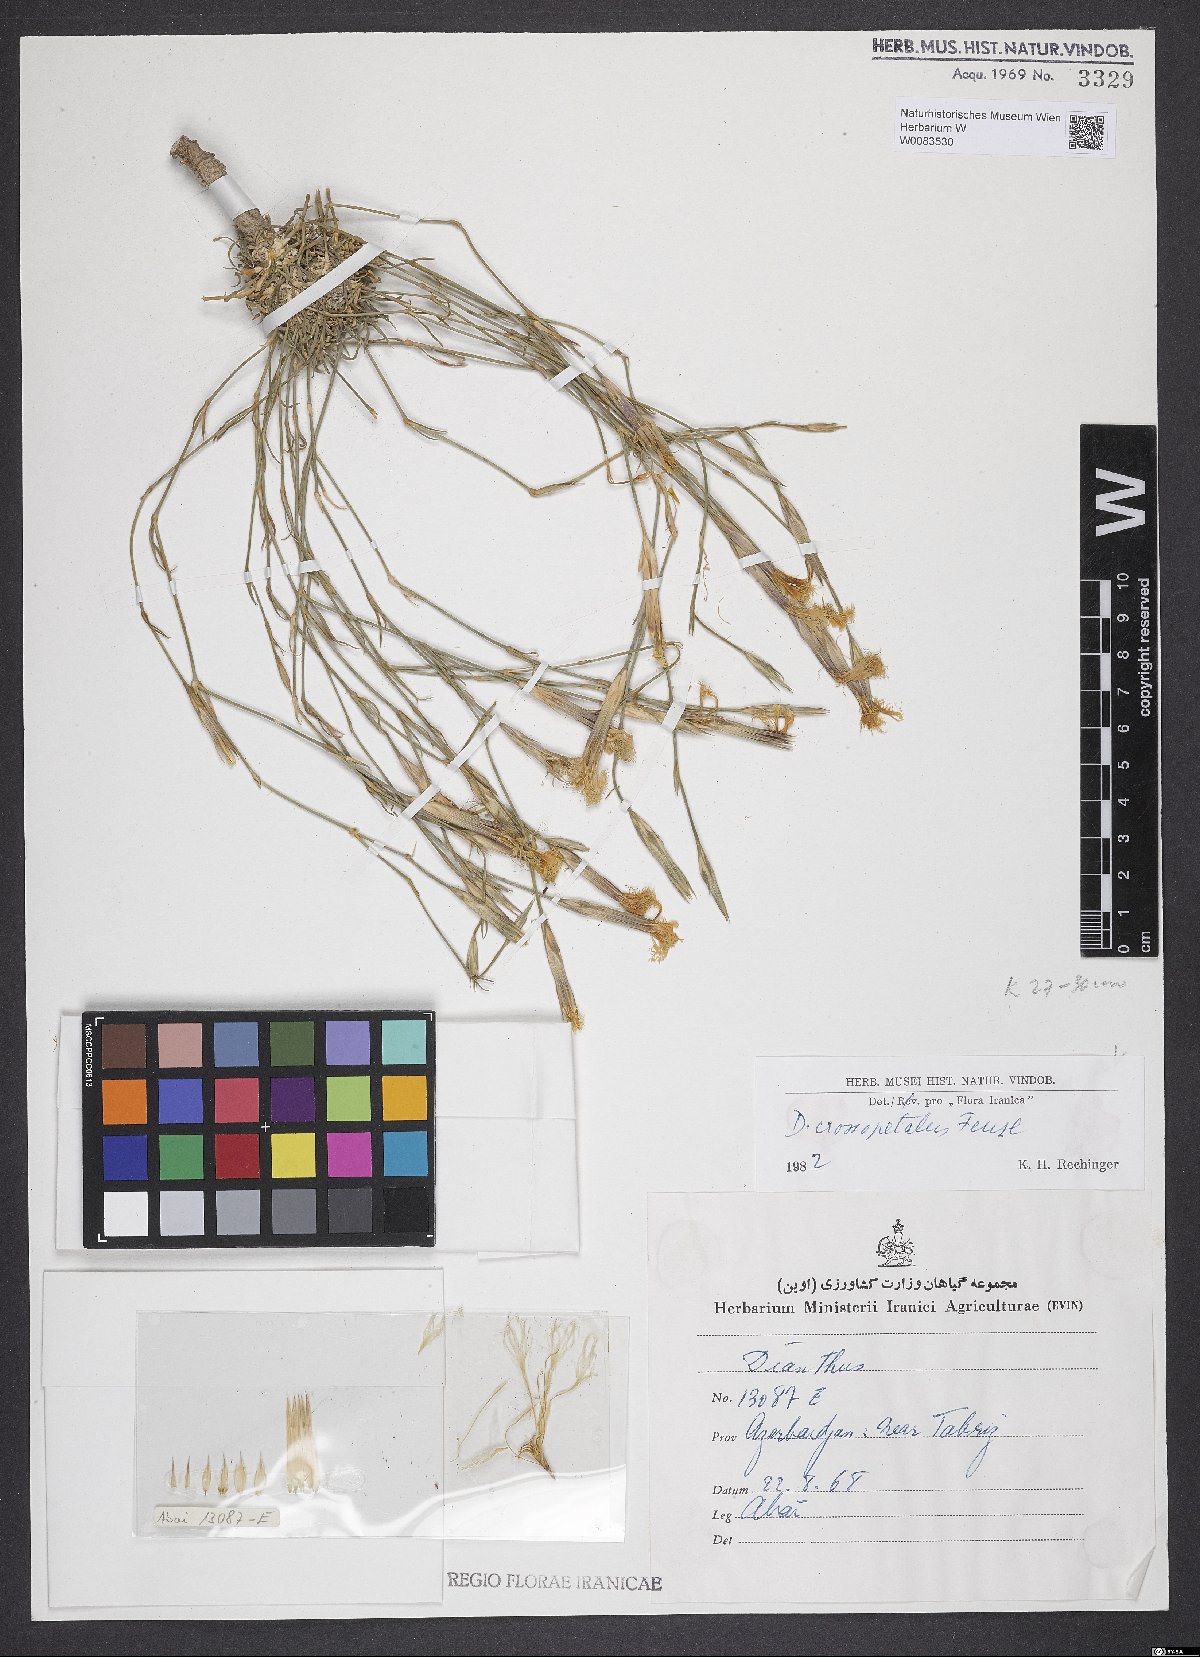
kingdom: Plantae
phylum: Tracheophyta
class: Magnoliopsida
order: Caryophyllales
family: Caryophyllaceae
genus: Dianthus
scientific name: Dianthus crossopetalus
